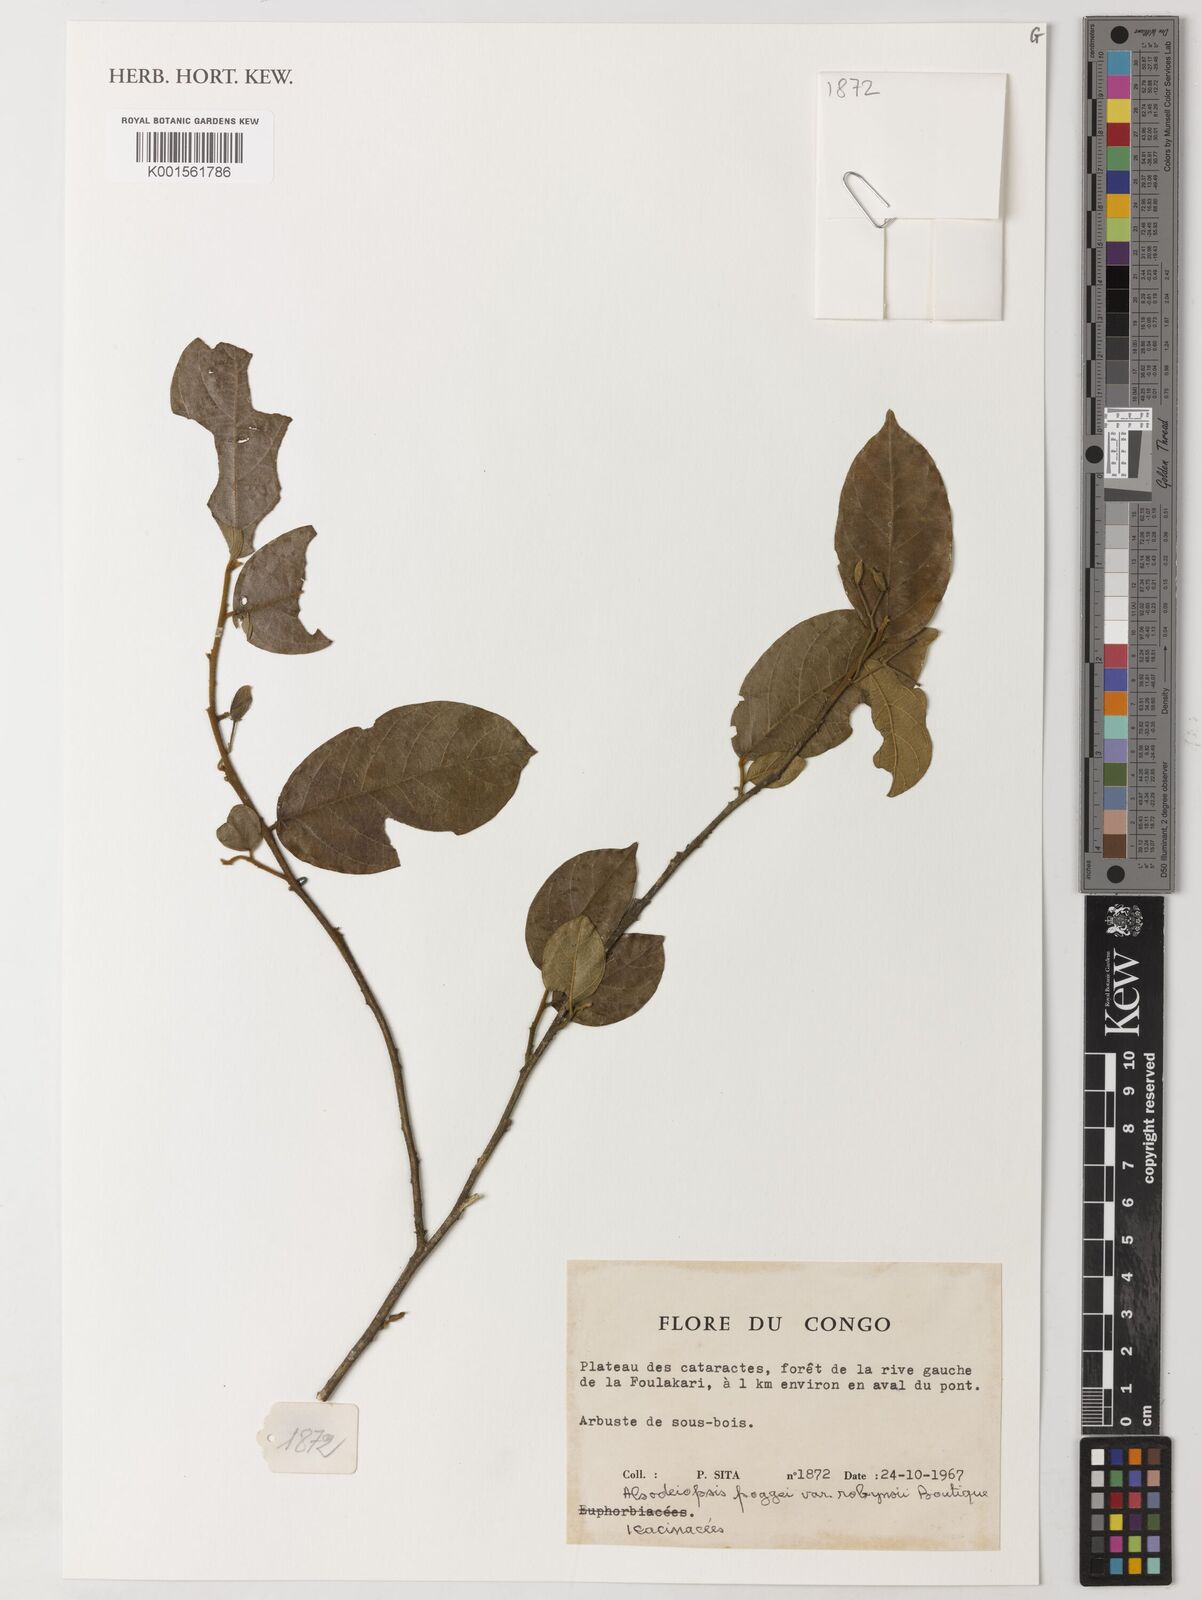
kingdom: Plantae
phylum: Tracheophyta
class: Magnoliopsida
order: Icacinales
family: Icacinaceae
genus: Alsodeiopsis
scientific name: Alsodeiopsis poggei
